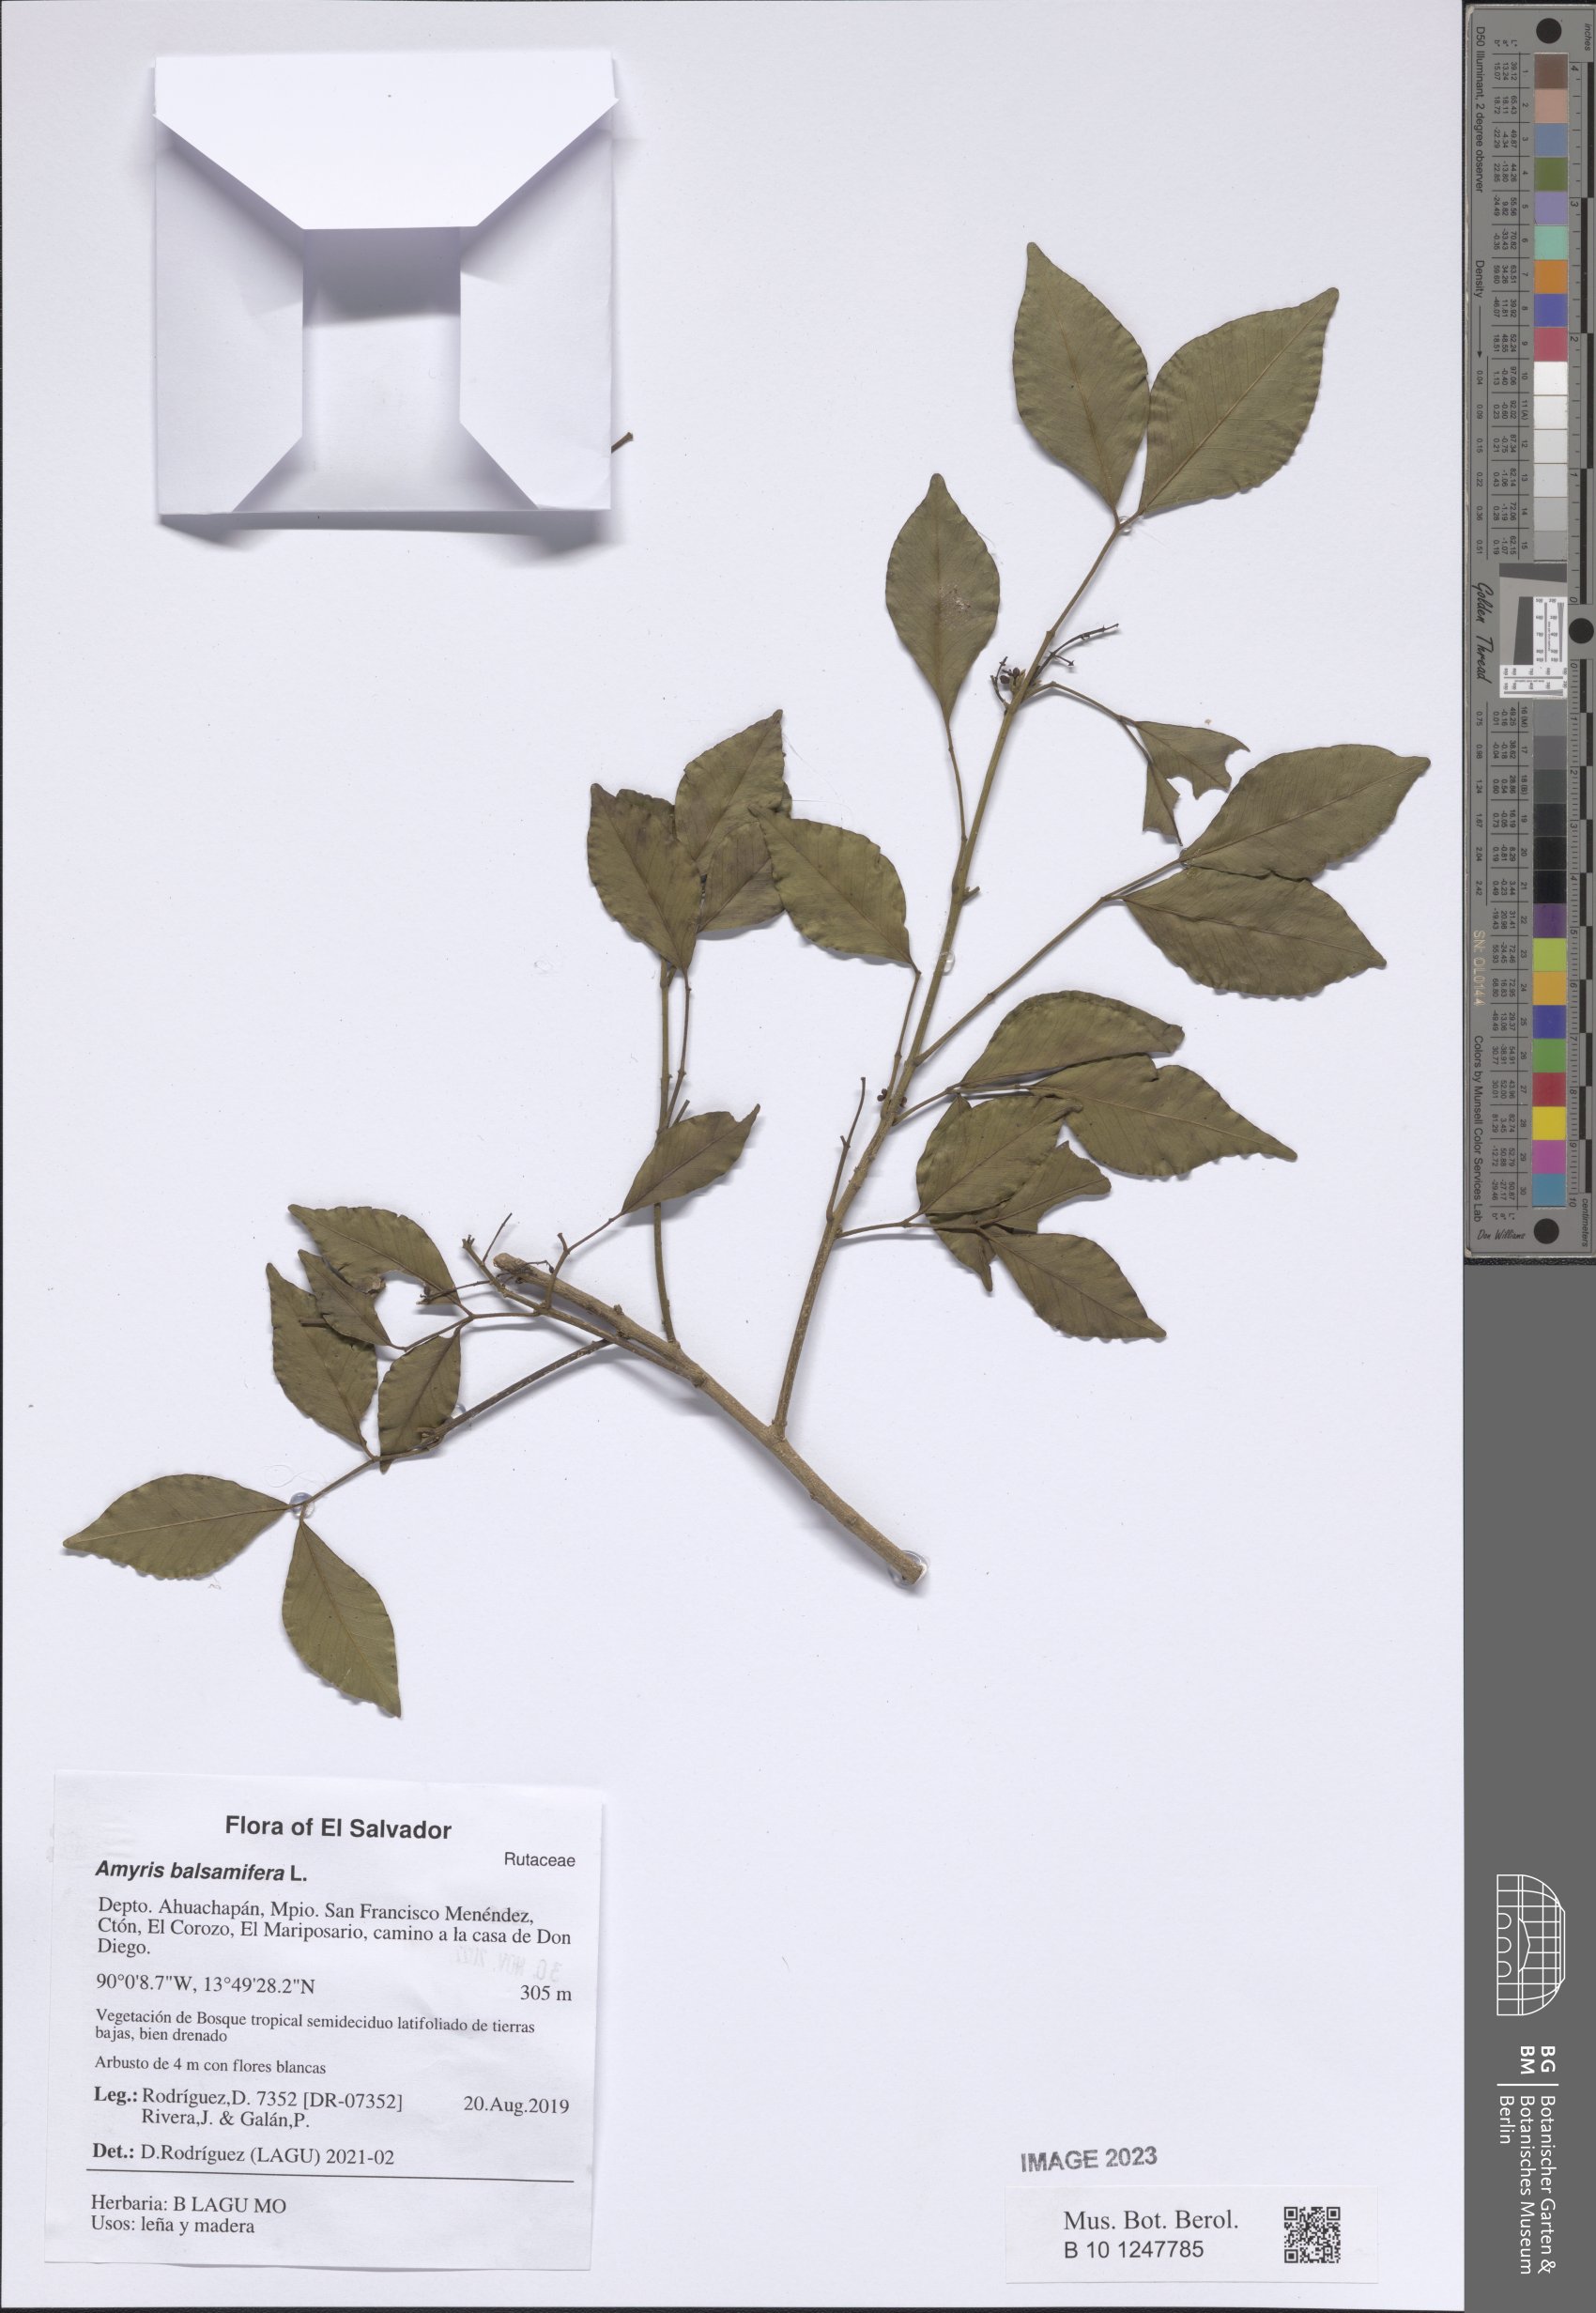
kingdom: Plantae
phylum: Tracheophyta
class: Magnoliopsida
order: Sapindales
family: Rutaceae
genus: Amyris
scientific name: Amyris balsamifera
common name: Balsam amyris
